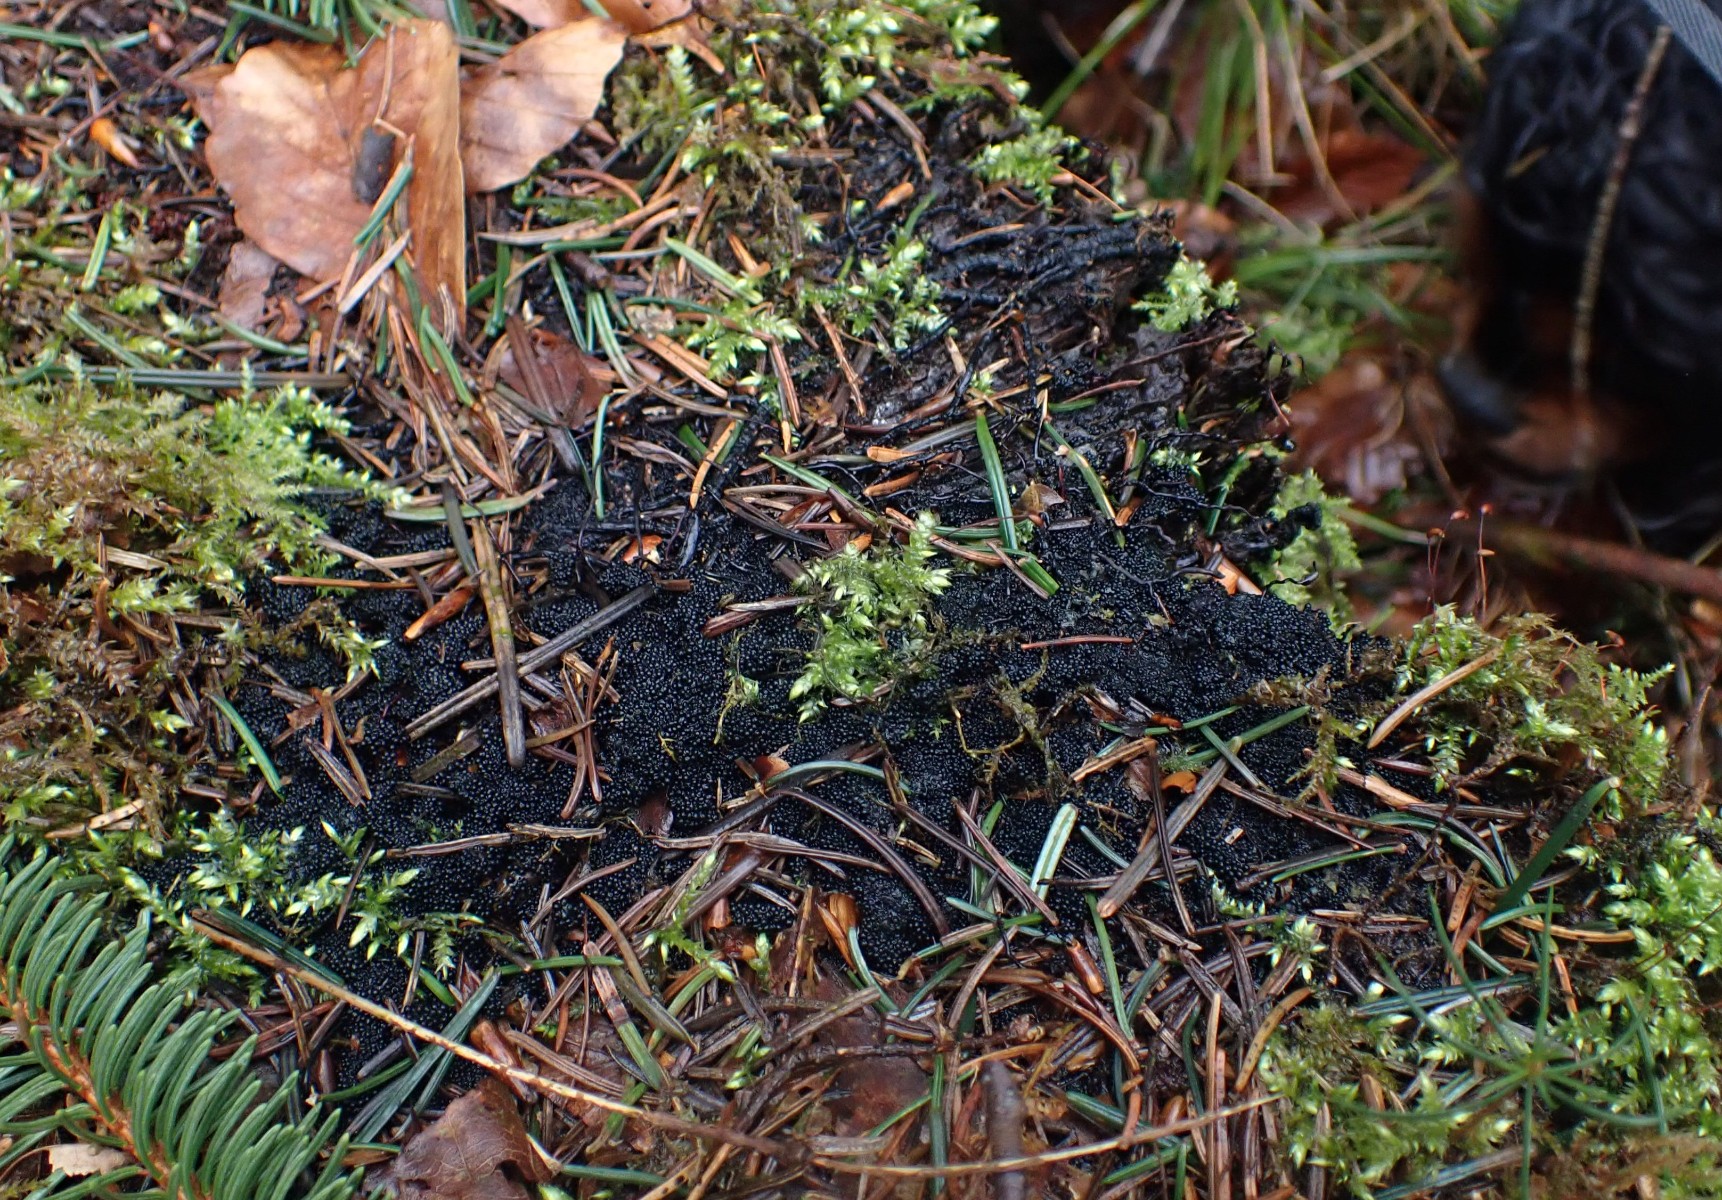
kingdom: Fungi
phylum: Ascomycota
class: Sordariomycetes
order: Sordariales
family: Helminthosphaeriaceae
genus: Ruzenia
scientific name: Ruzenia spermoides
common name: glat børstekerne
